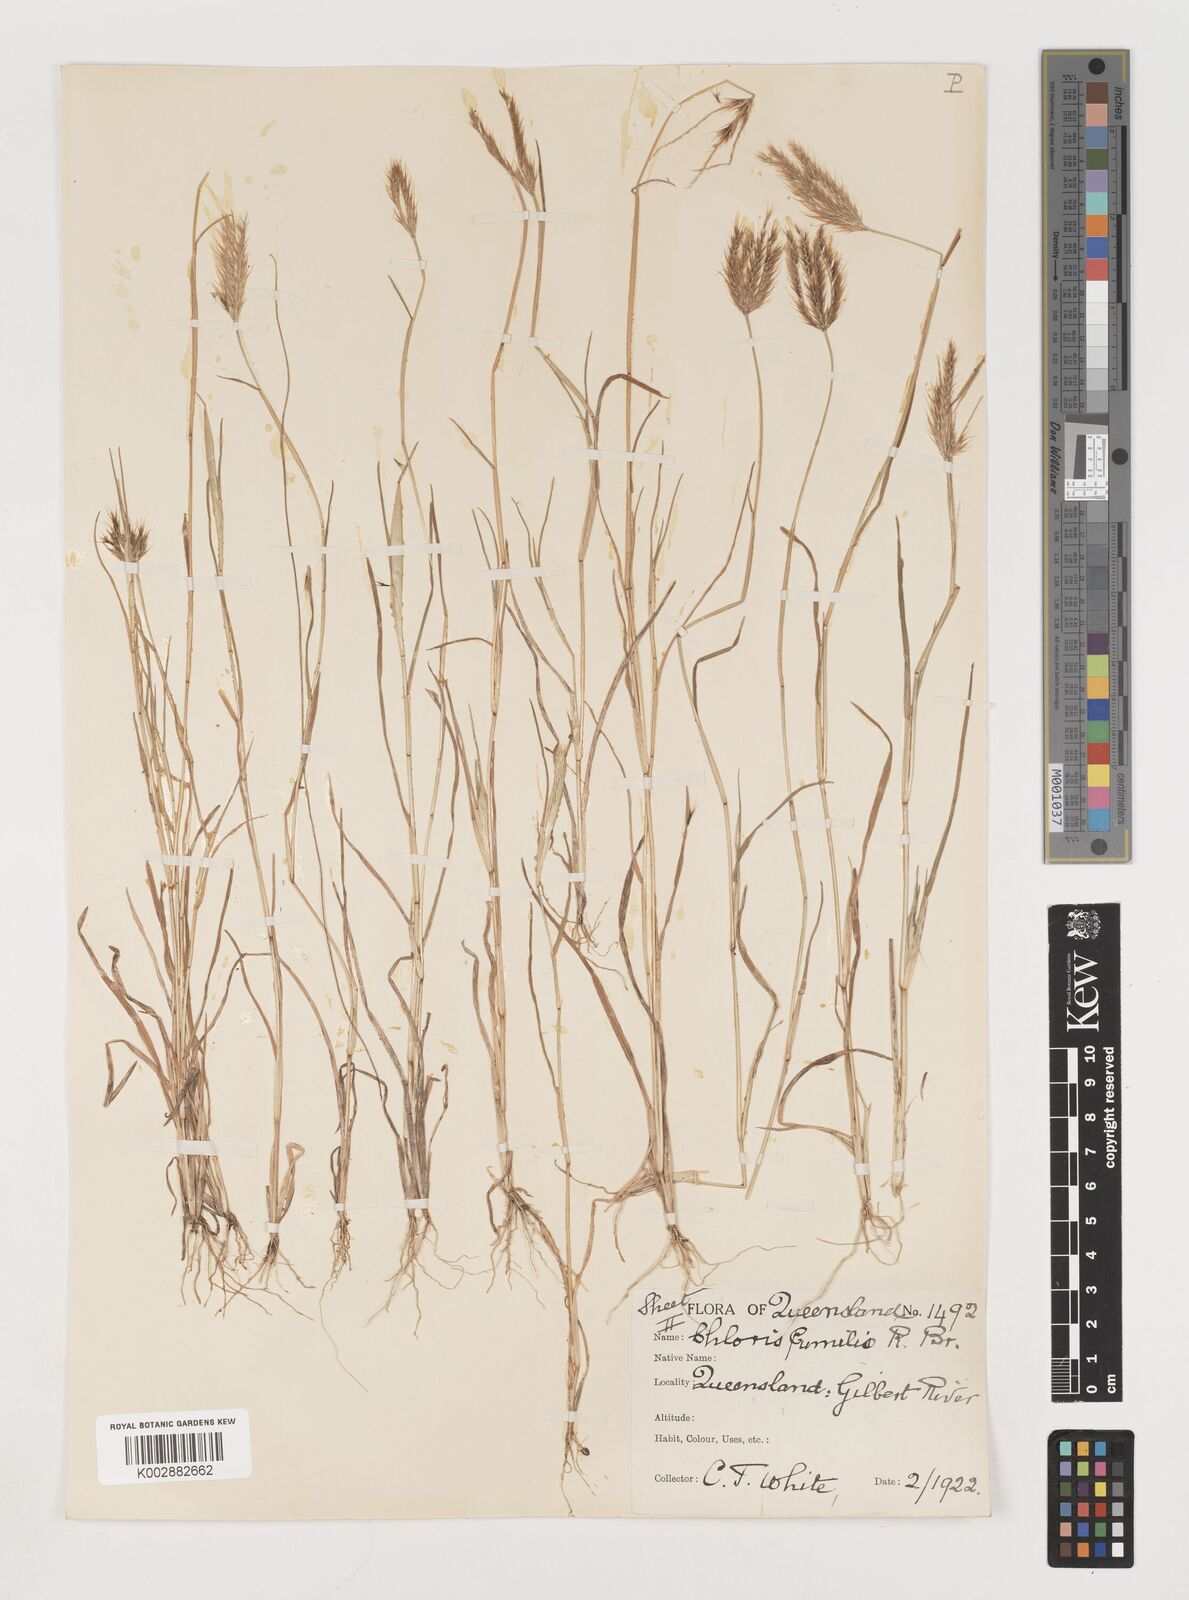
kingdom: Plantae
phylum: Tracheophyta
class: Liliopsida
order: Poales
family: Poaceae
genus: Chloris
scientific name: Chloris lobata
